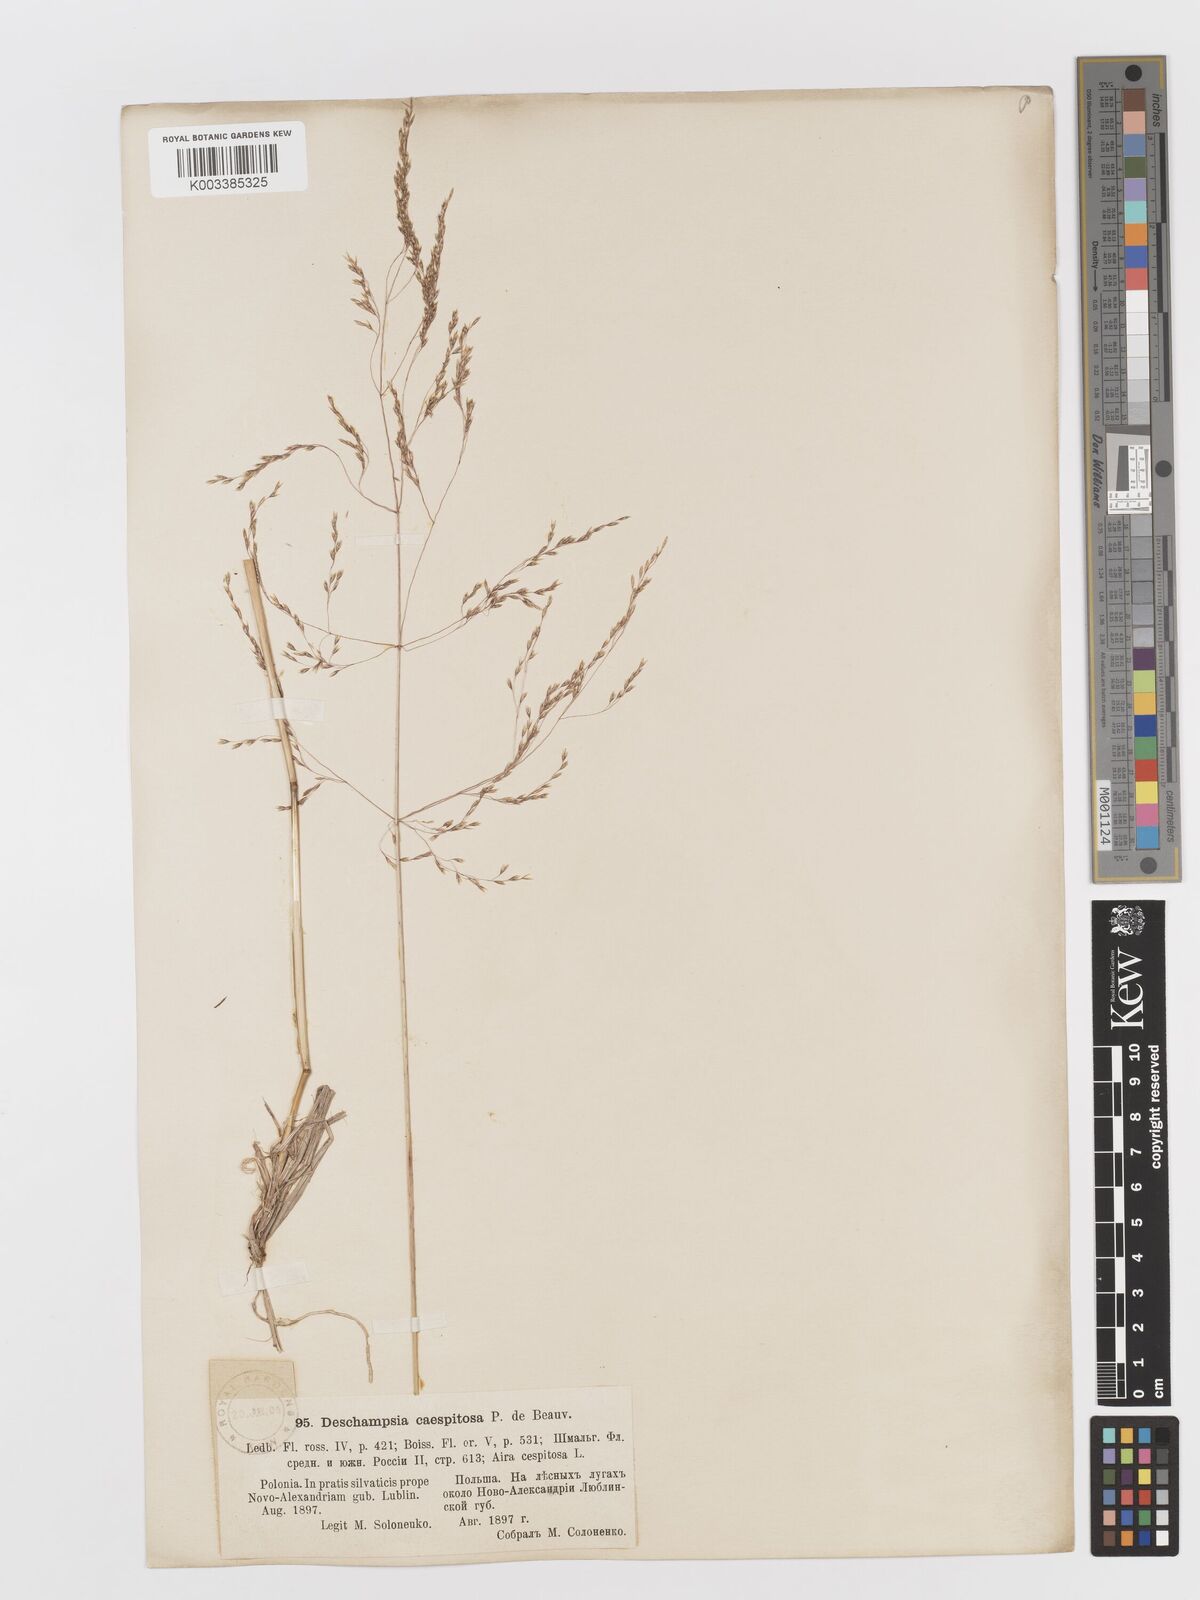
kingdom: Plantae
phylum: Tracheophyta
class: Liliopsida
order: Poales
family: Poaceae
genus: Deschampsia
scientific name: Deschampsia cespitosa
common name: Tufted hair-grass
